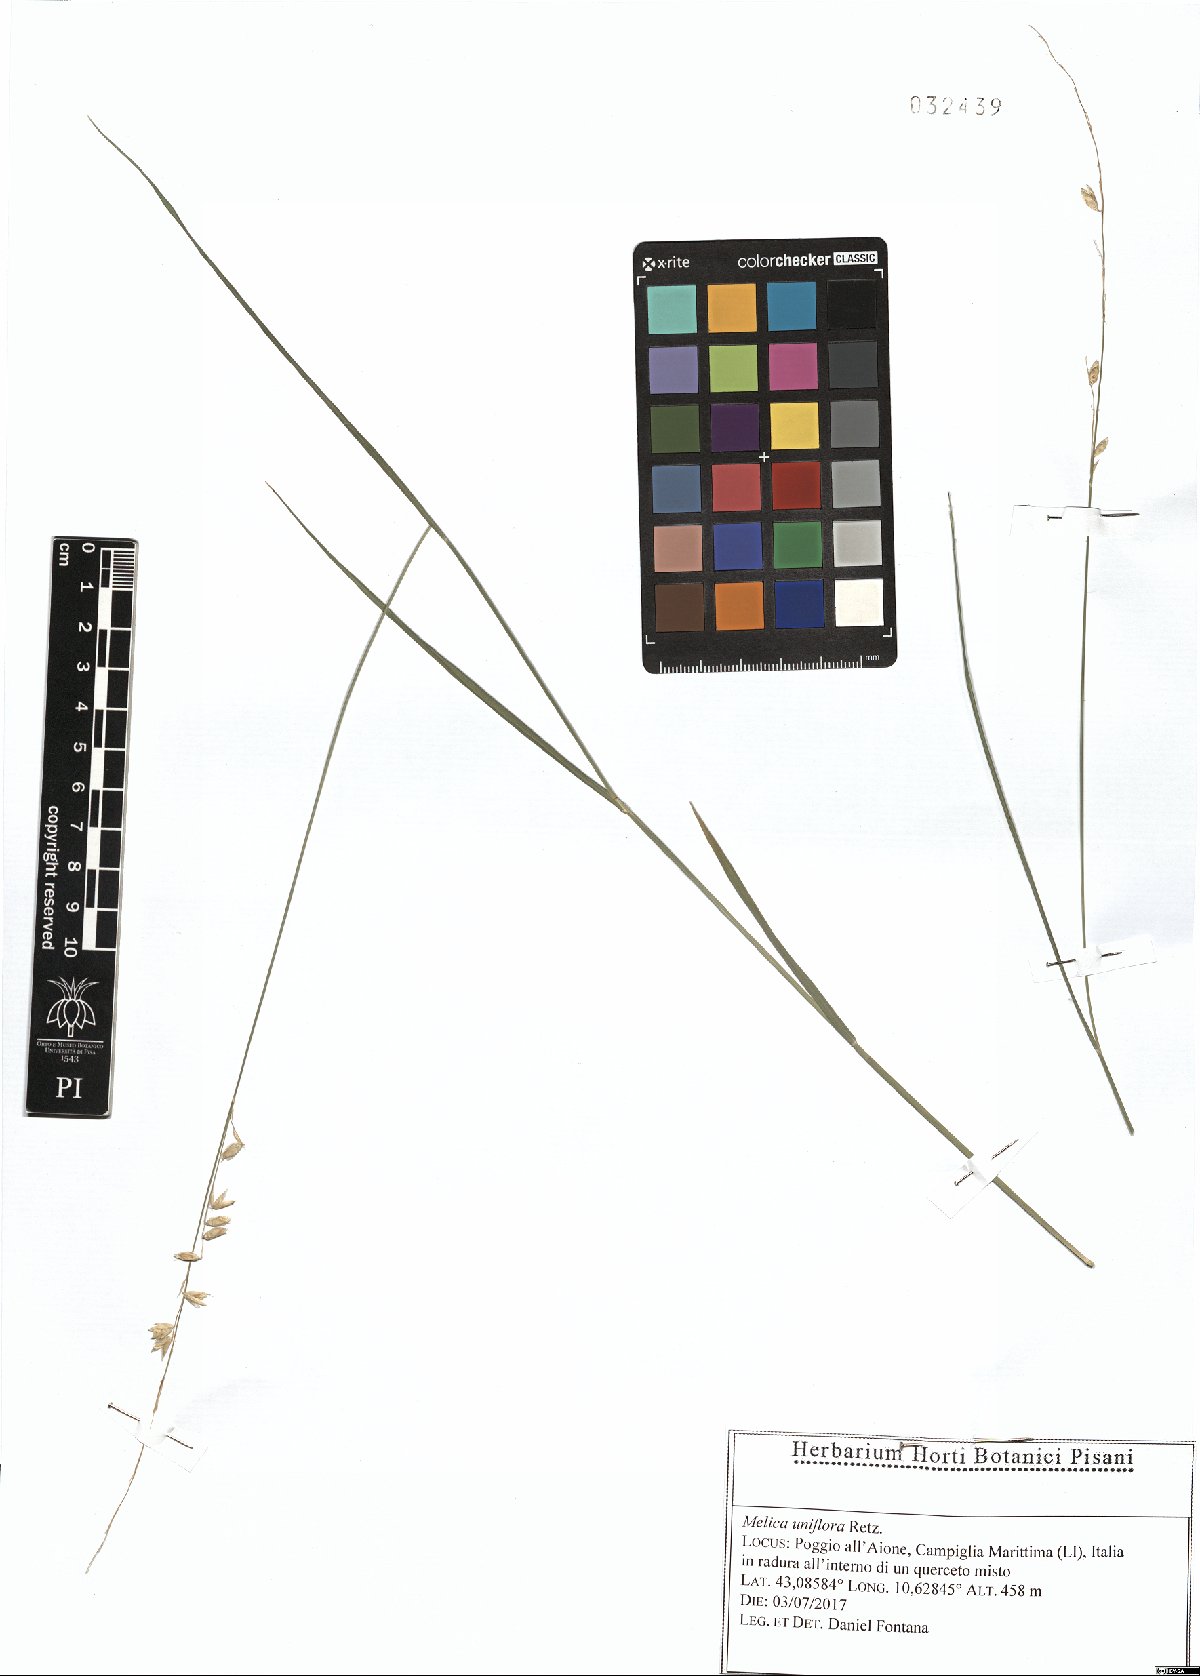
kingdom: Plantae
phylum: Tracheophyta
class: Liliopsida
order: Poales
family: Poaceae
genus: Melica
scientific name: Melica uniflora
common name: Wood melick
